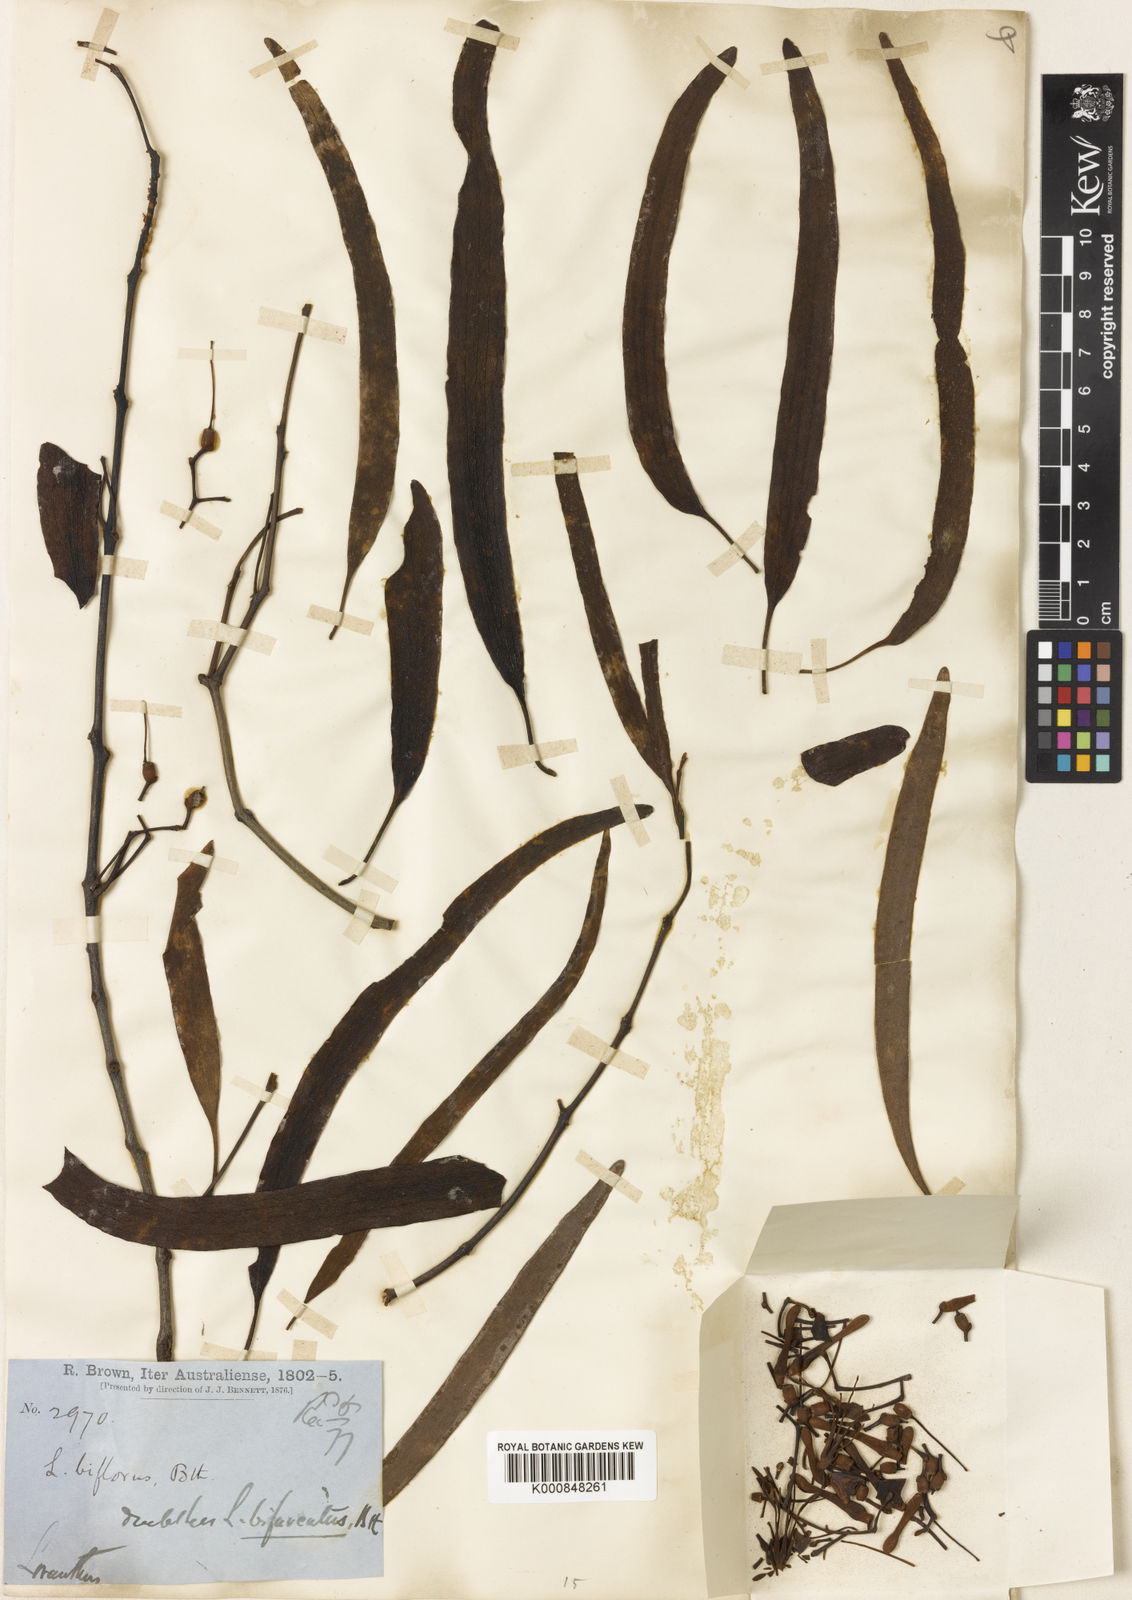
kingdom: Plantae
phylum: Tracheophyta
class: Magnoliopsida
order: Santalales
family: Loranthaceae
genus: Amyema
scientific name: Amyema bifurcata
